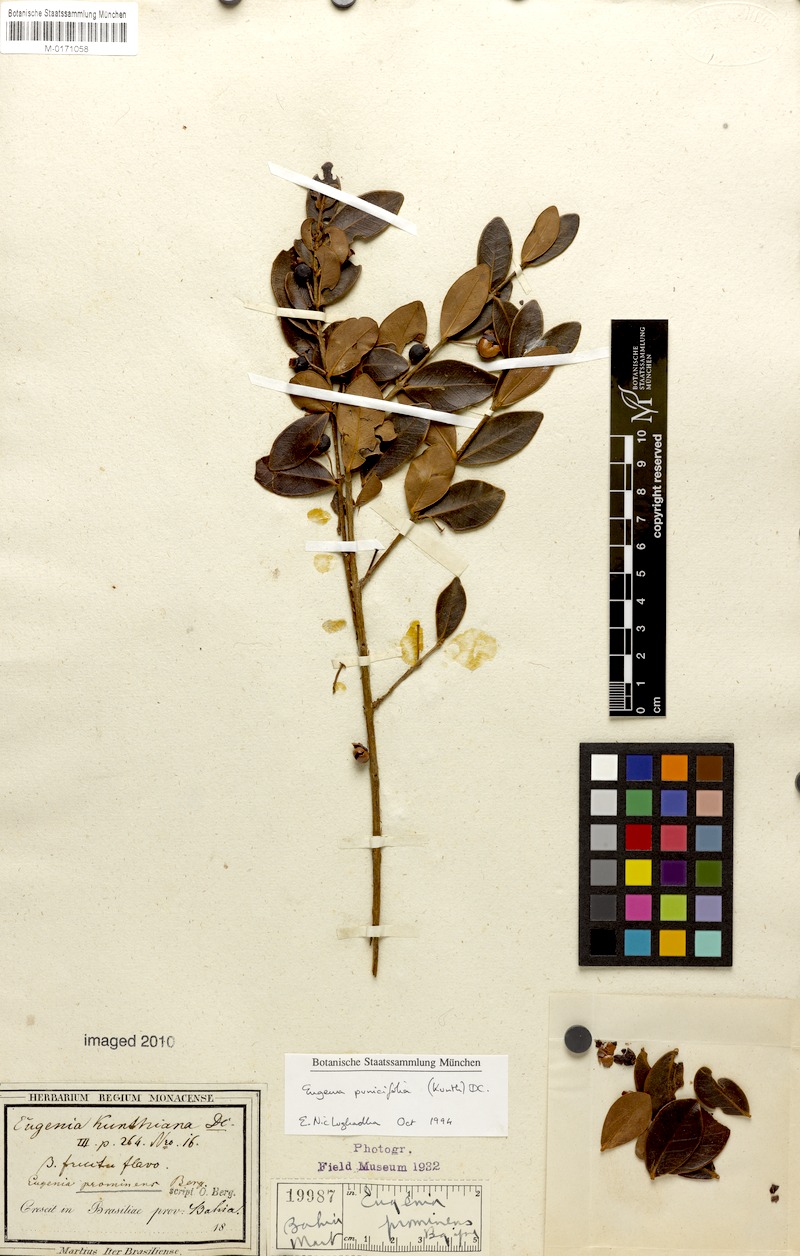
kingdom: Plantae
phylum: Tracheophyta
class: Magnoliopsida
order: Myrtales
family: Myrtaceae
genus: Eugenia
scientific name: Eugenia punicifolia
